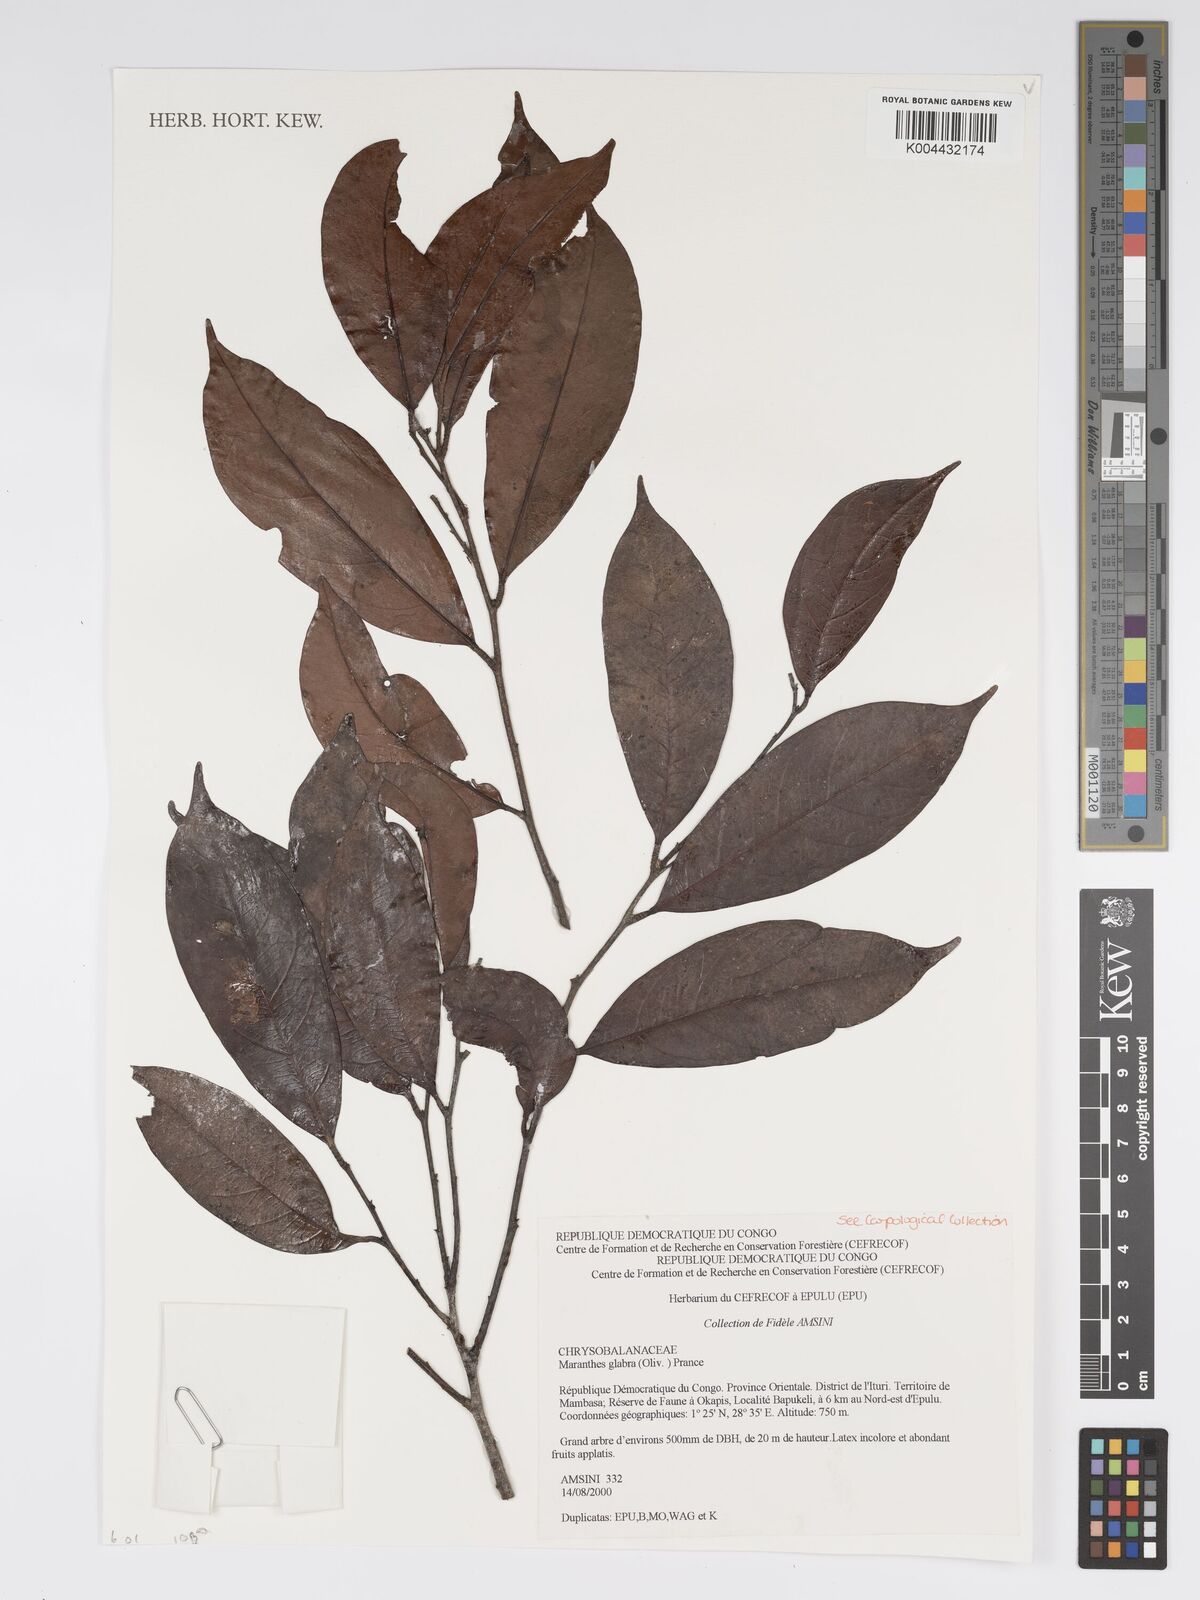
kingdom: Plantae
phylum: Tracheophyta
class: Magnoliopsida
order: Malpighiales
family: Chrysobalanaceae
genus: Maranthes
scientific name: Maranthes glabra
